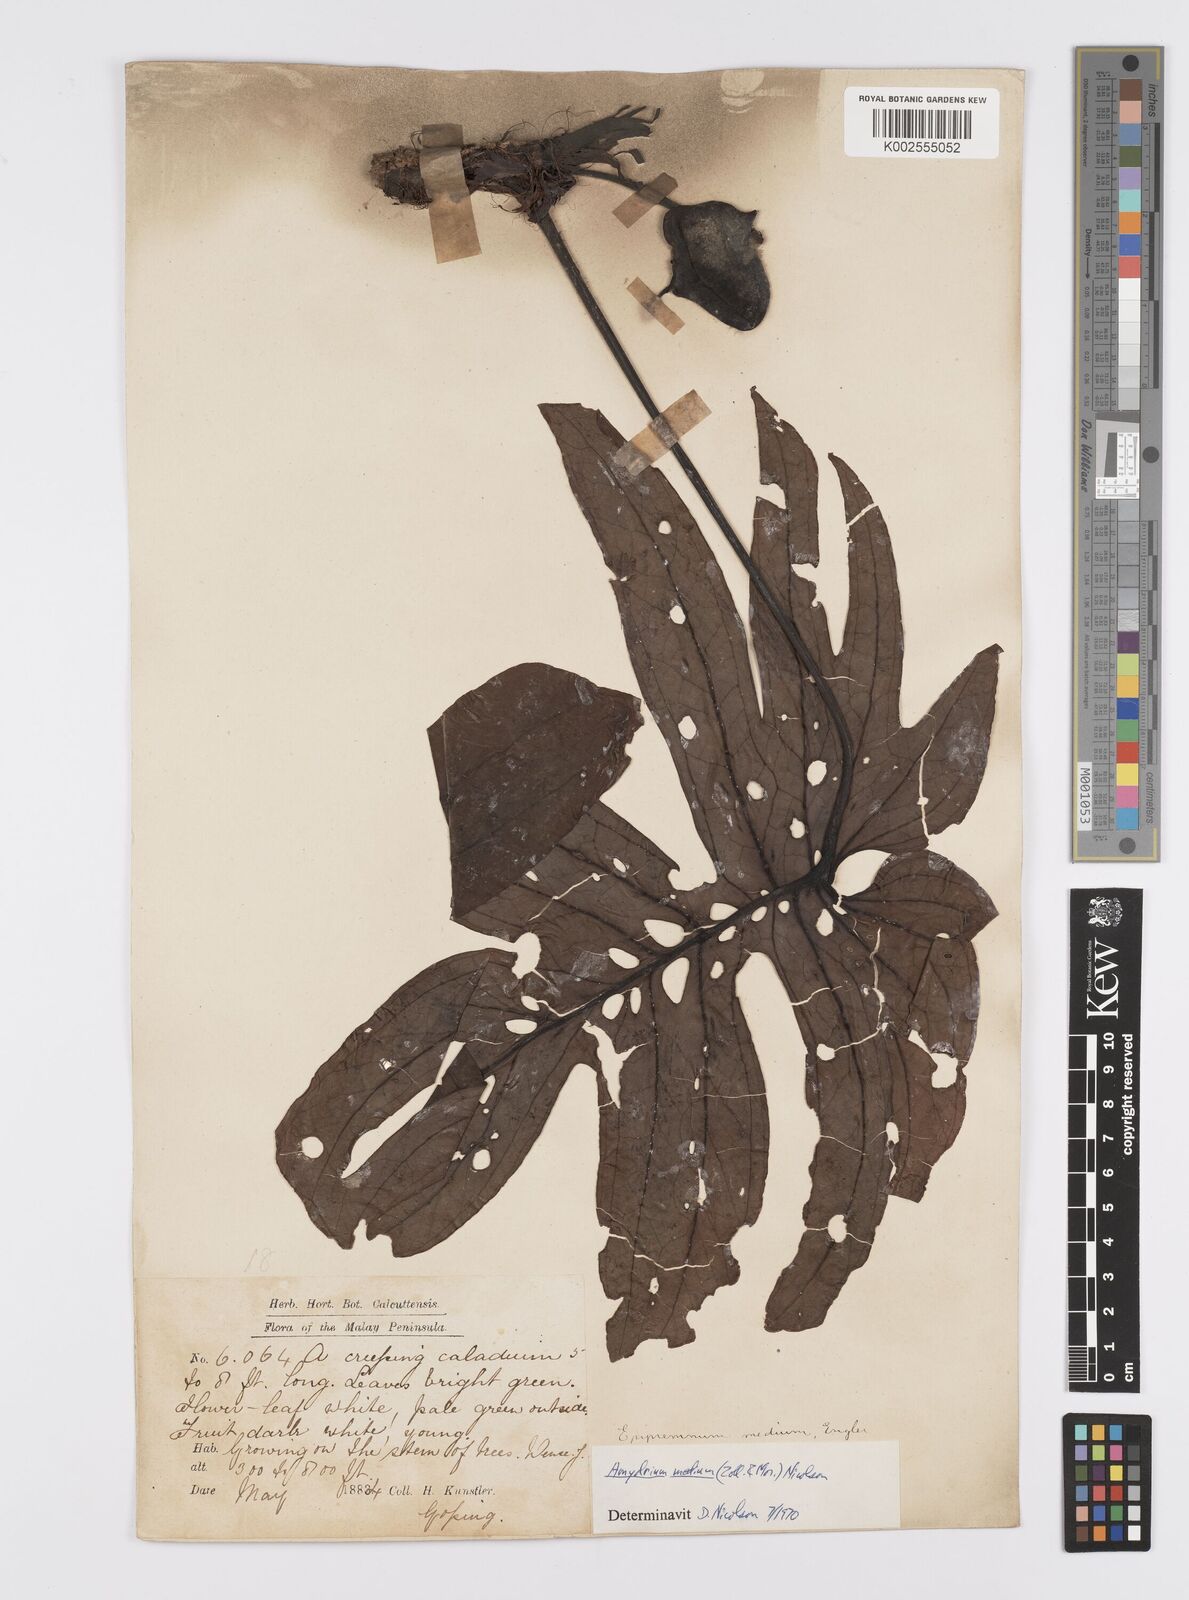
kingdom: Plantae
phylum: Tracheophyta
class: Liliopsida
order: Alismatales
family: Araceae
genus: Amydrium
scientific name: Amydrium medium
